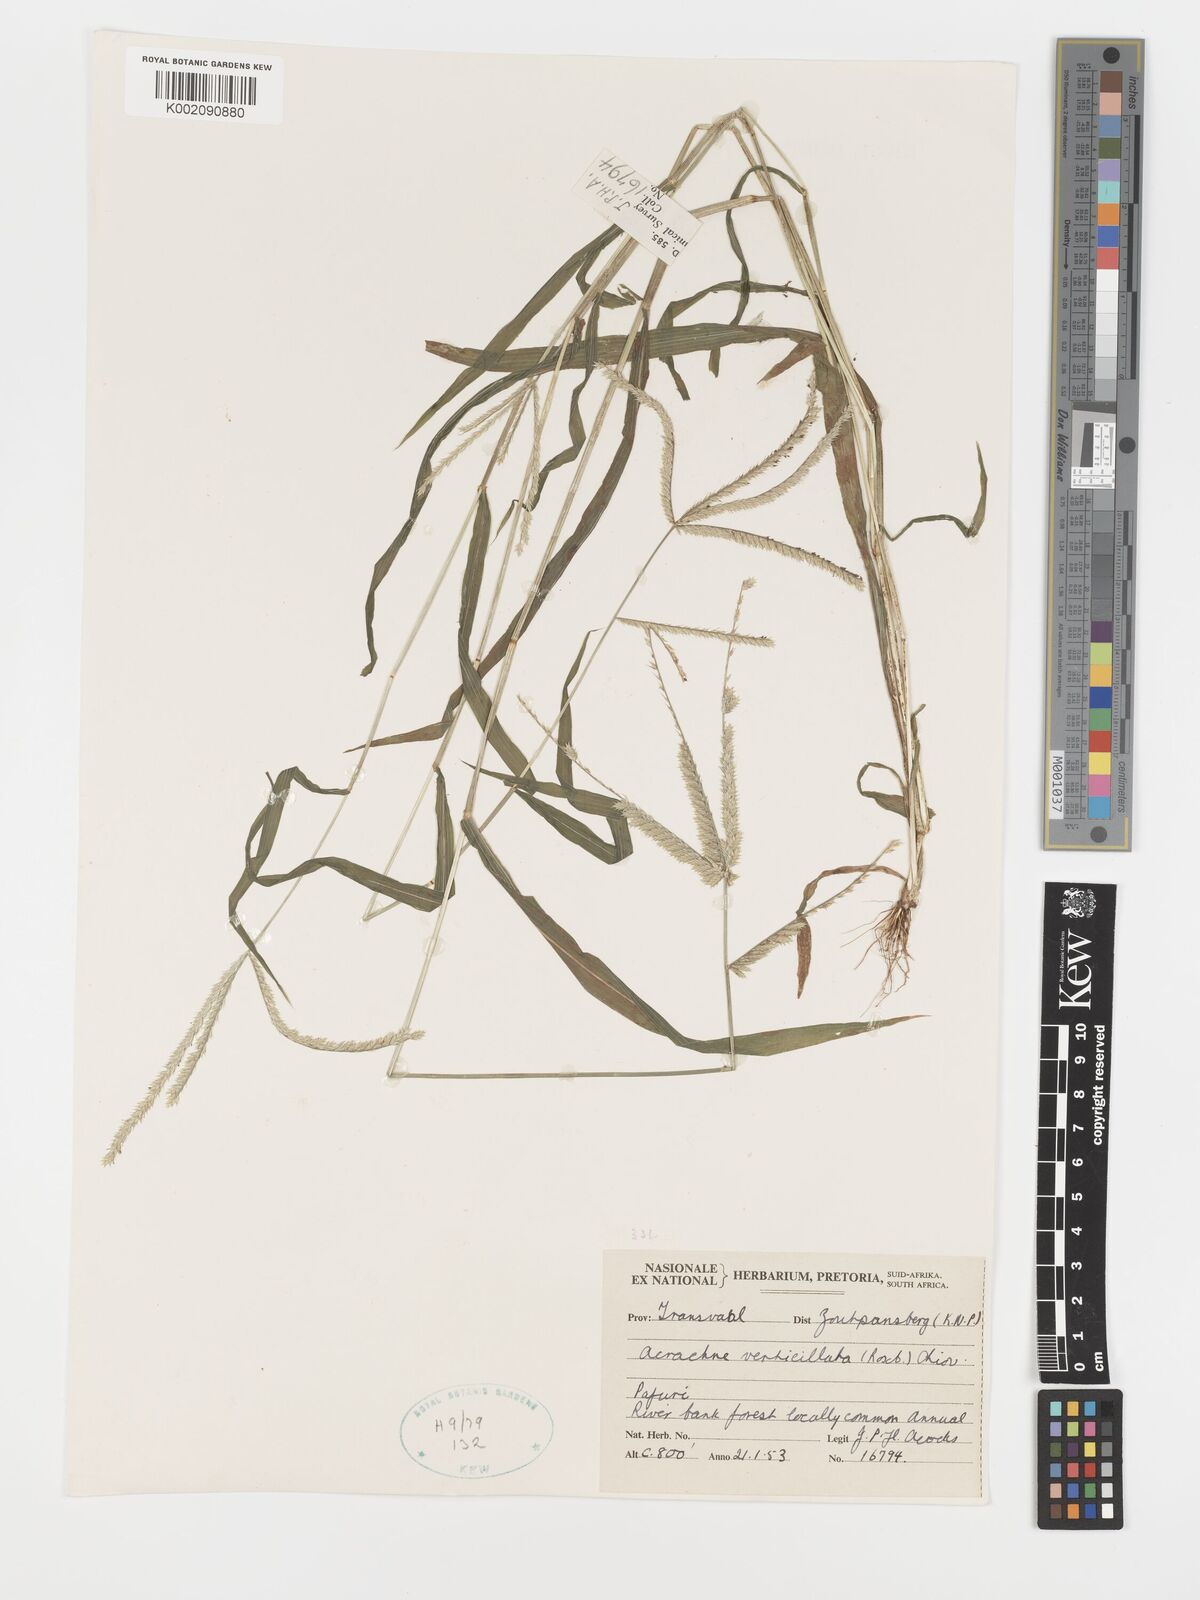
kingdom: Plantae
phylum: Tracheophyta
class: Liliopsida
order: Poales
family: Poaceae
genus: Acrachne
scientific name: Acrachne racemosa
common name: Goosegrass
